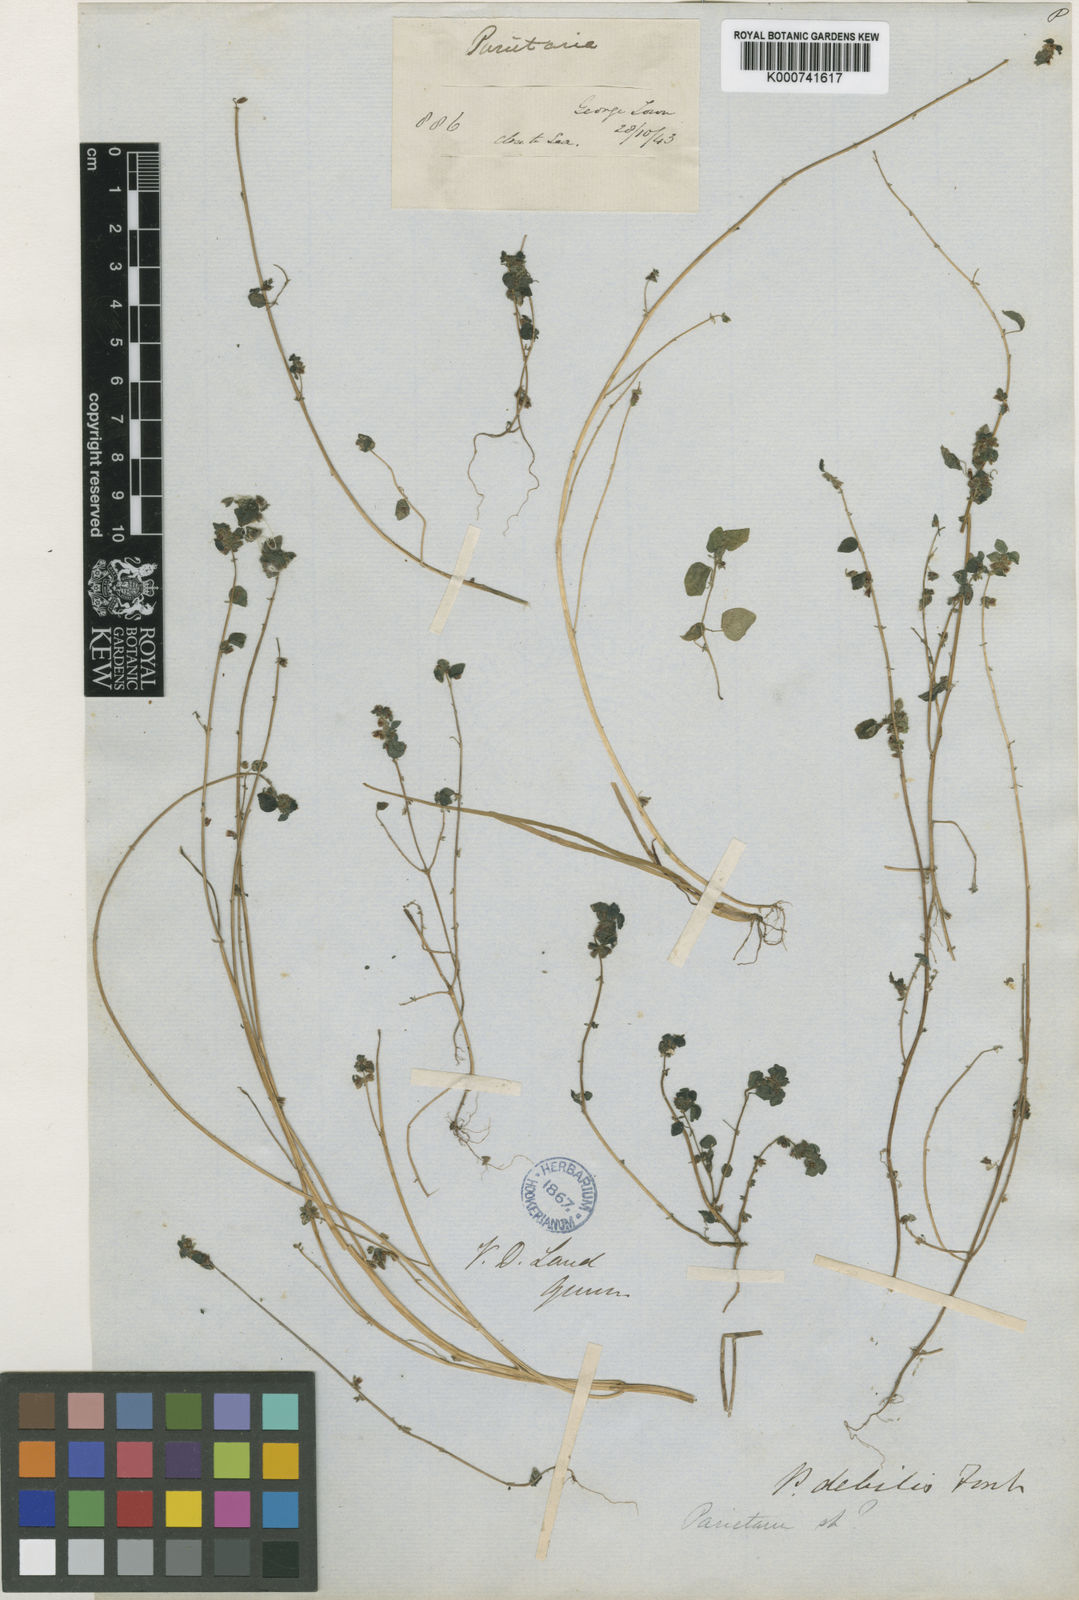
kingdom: Plantae
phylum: Tracheophyta
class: Magnoliopsida
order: Rosales
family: Urticaceae
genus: Parietaria
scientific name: Parietaria cardiostegia
